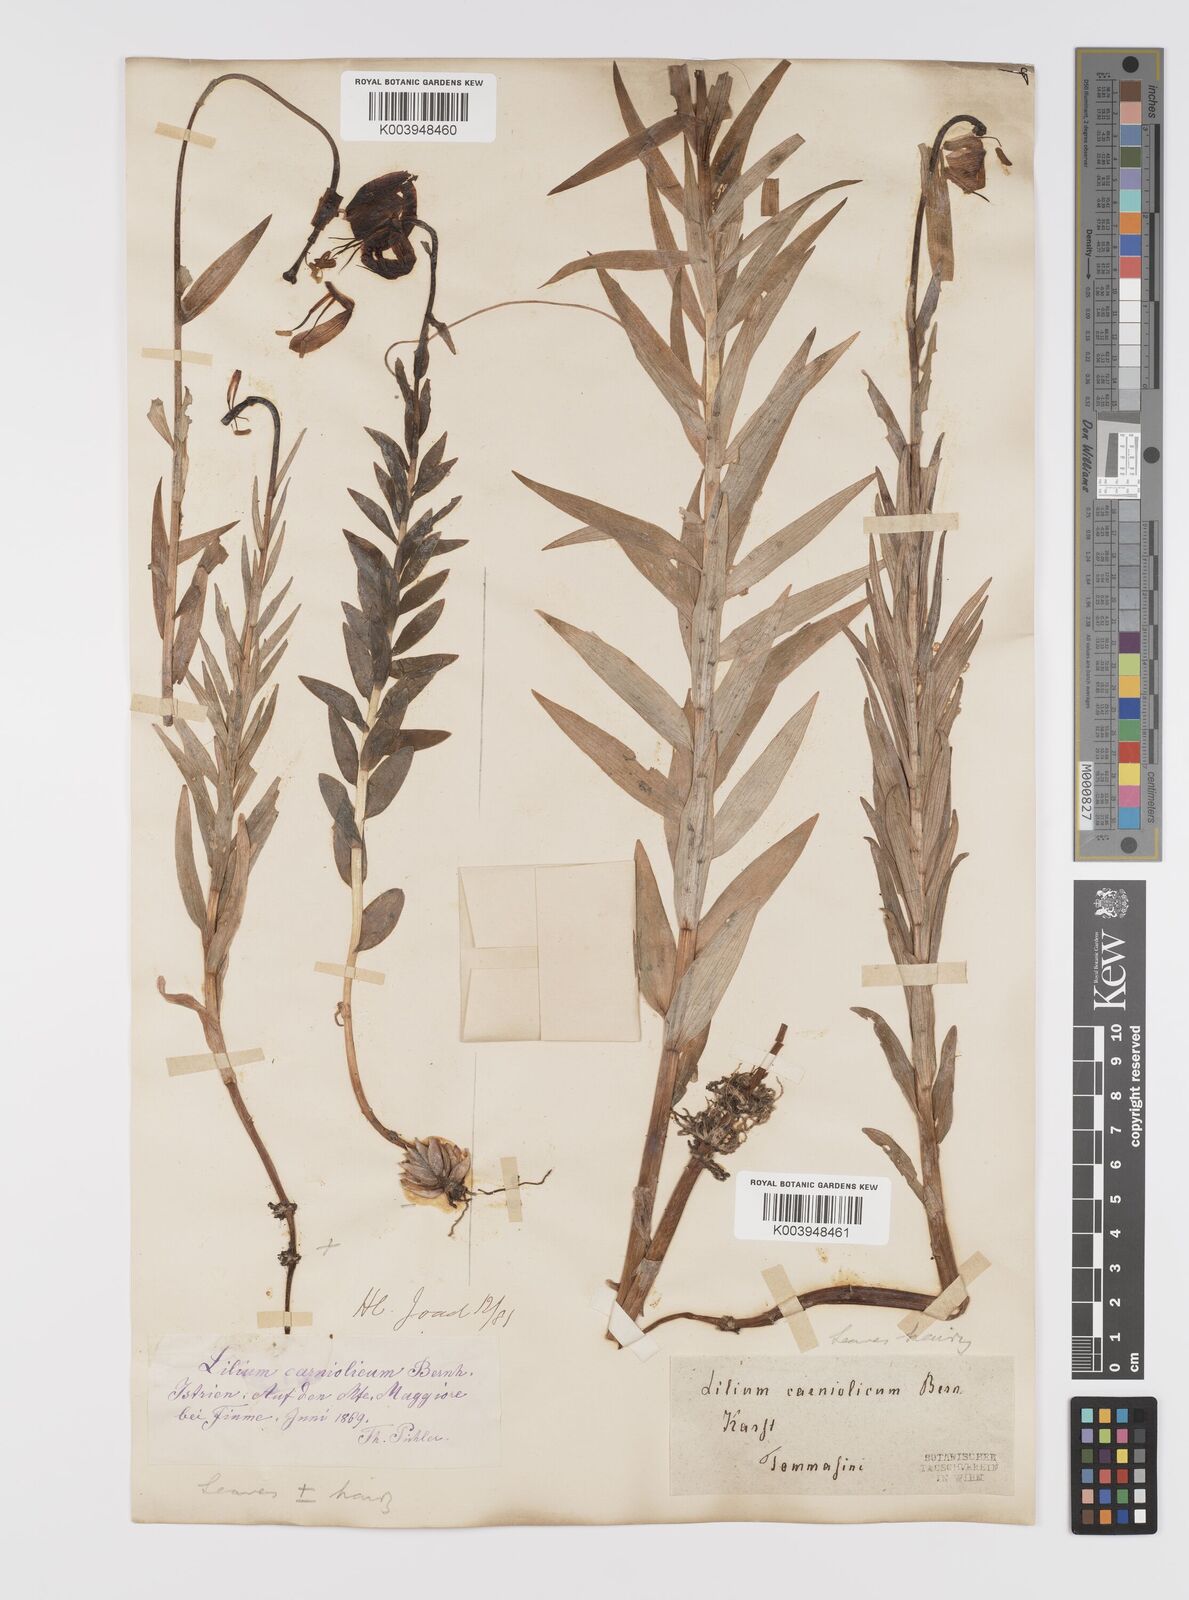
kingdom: Plantae
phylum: Tracheophyta
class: Liliopsida
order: Liliales
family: Liliaceae
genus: Lilium
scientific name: Lilium
